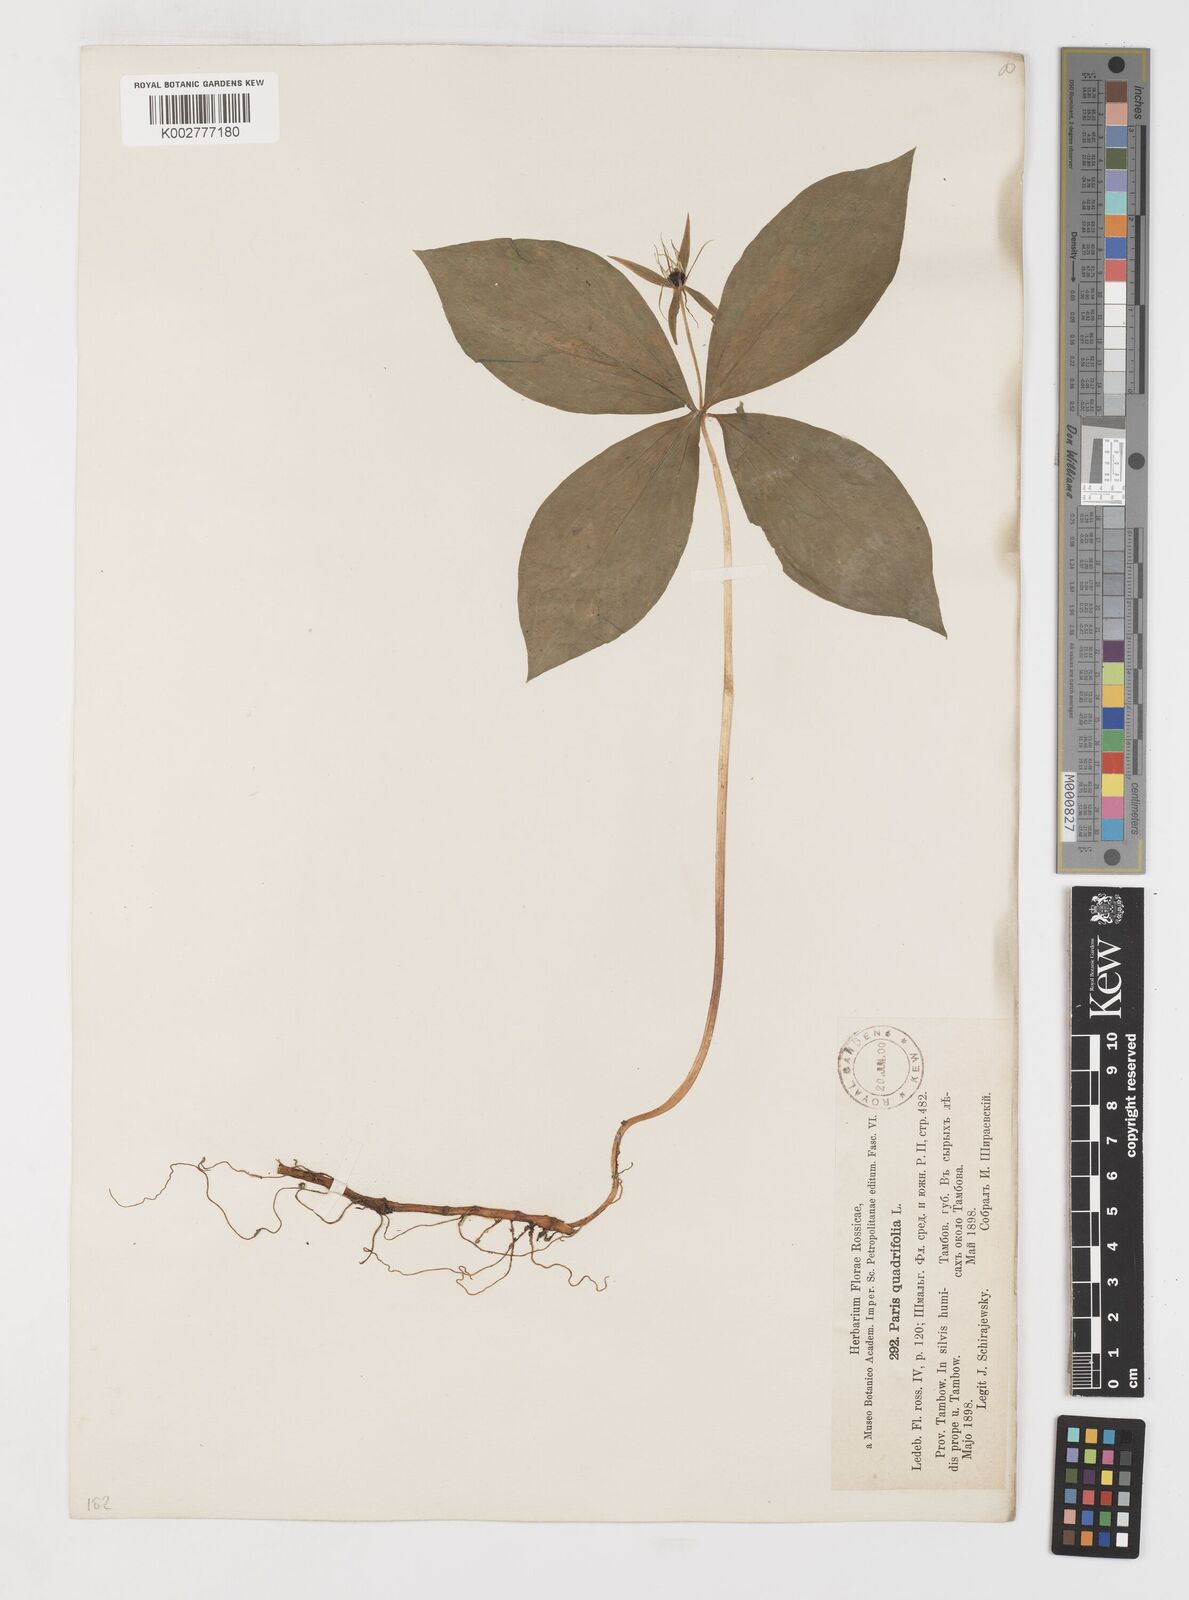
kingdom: Plantae
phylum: Tracheophyta
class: Liliopsida
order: Liliales
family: Melanthiaceae
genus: Paris
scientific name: Paris quadrifolia
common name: Herb-paris
